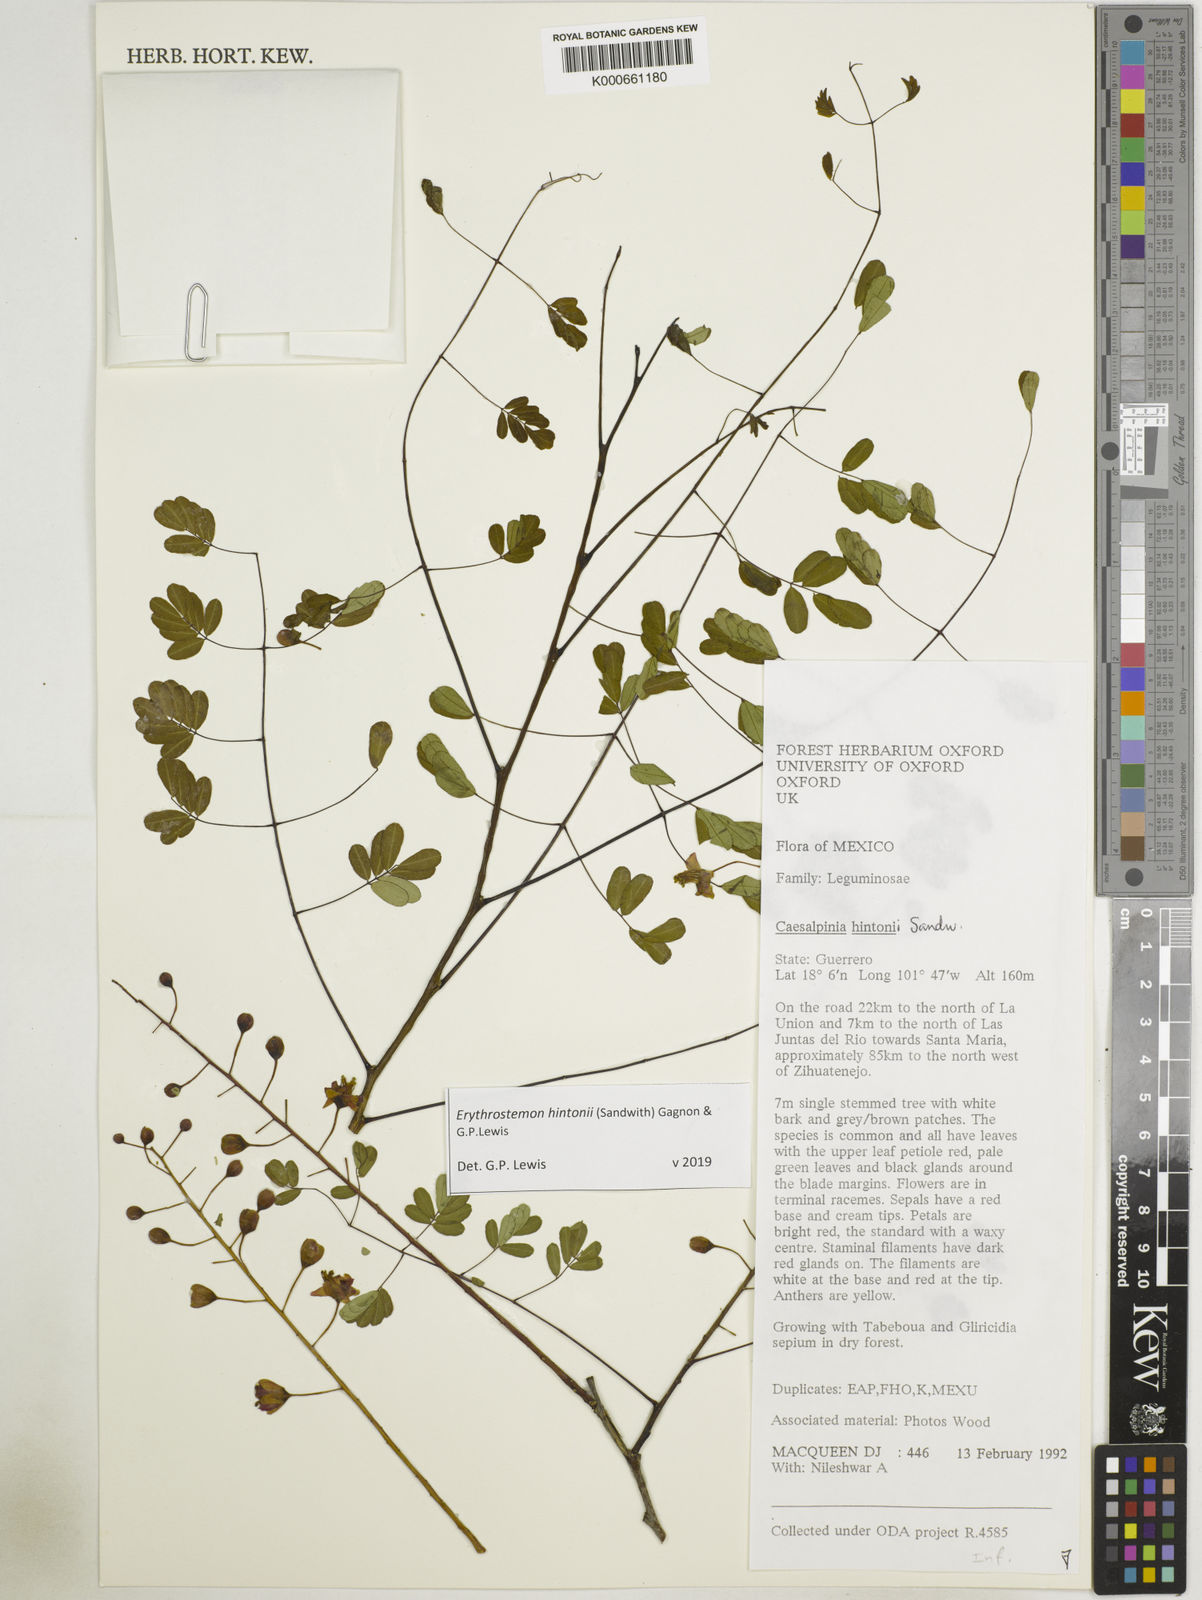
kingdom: Plantae
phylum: Tracheophyta
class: Magnoliopsida
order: Fabales
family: Fabaceae
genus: Erythrostemon
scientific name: Erythrostemon hintonii
